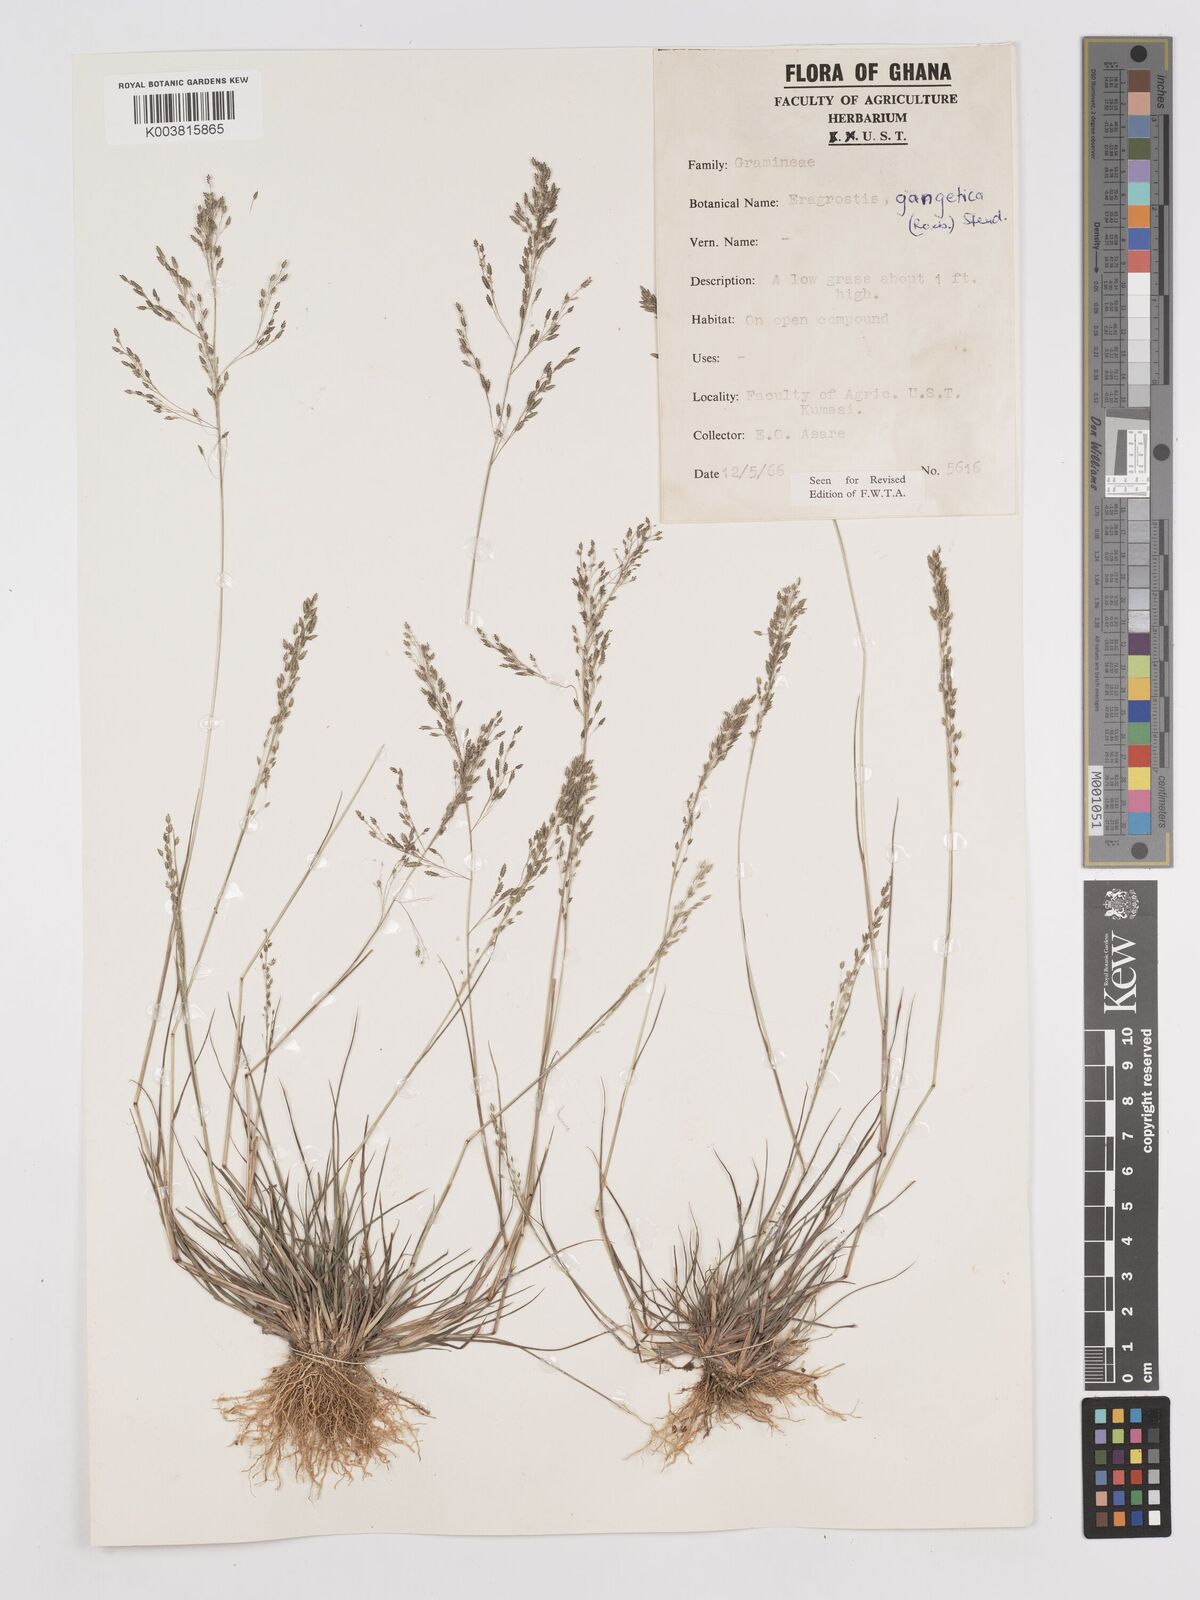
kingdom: Plantae
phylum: Tracheophyta
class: Liliopsida
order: Poales
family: Poaceae
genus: Eragrostis
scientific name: Eragrostis gangetica
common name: Slimflower lovegrass
